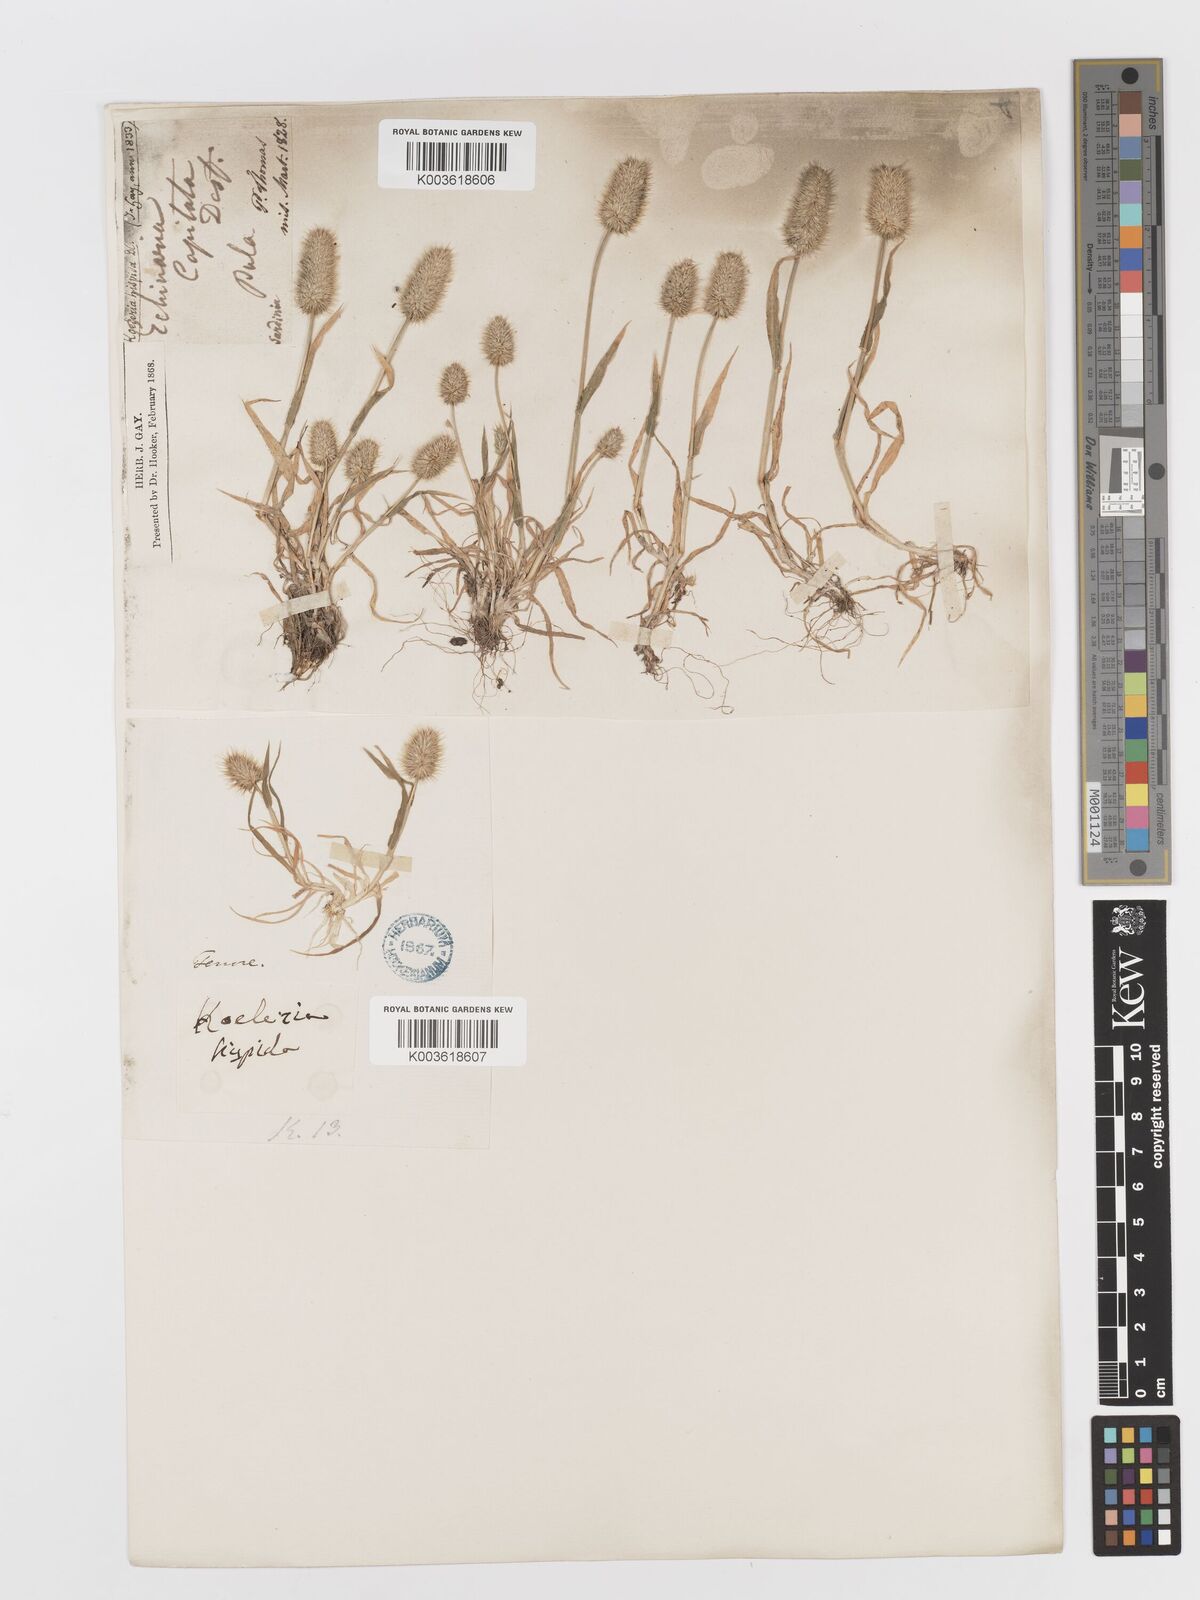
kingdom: Plantae
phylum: Tracheophyta
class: Liliopsida
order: Poales
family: Poaceae
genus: Rostraria
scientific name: Rostraria hispida
